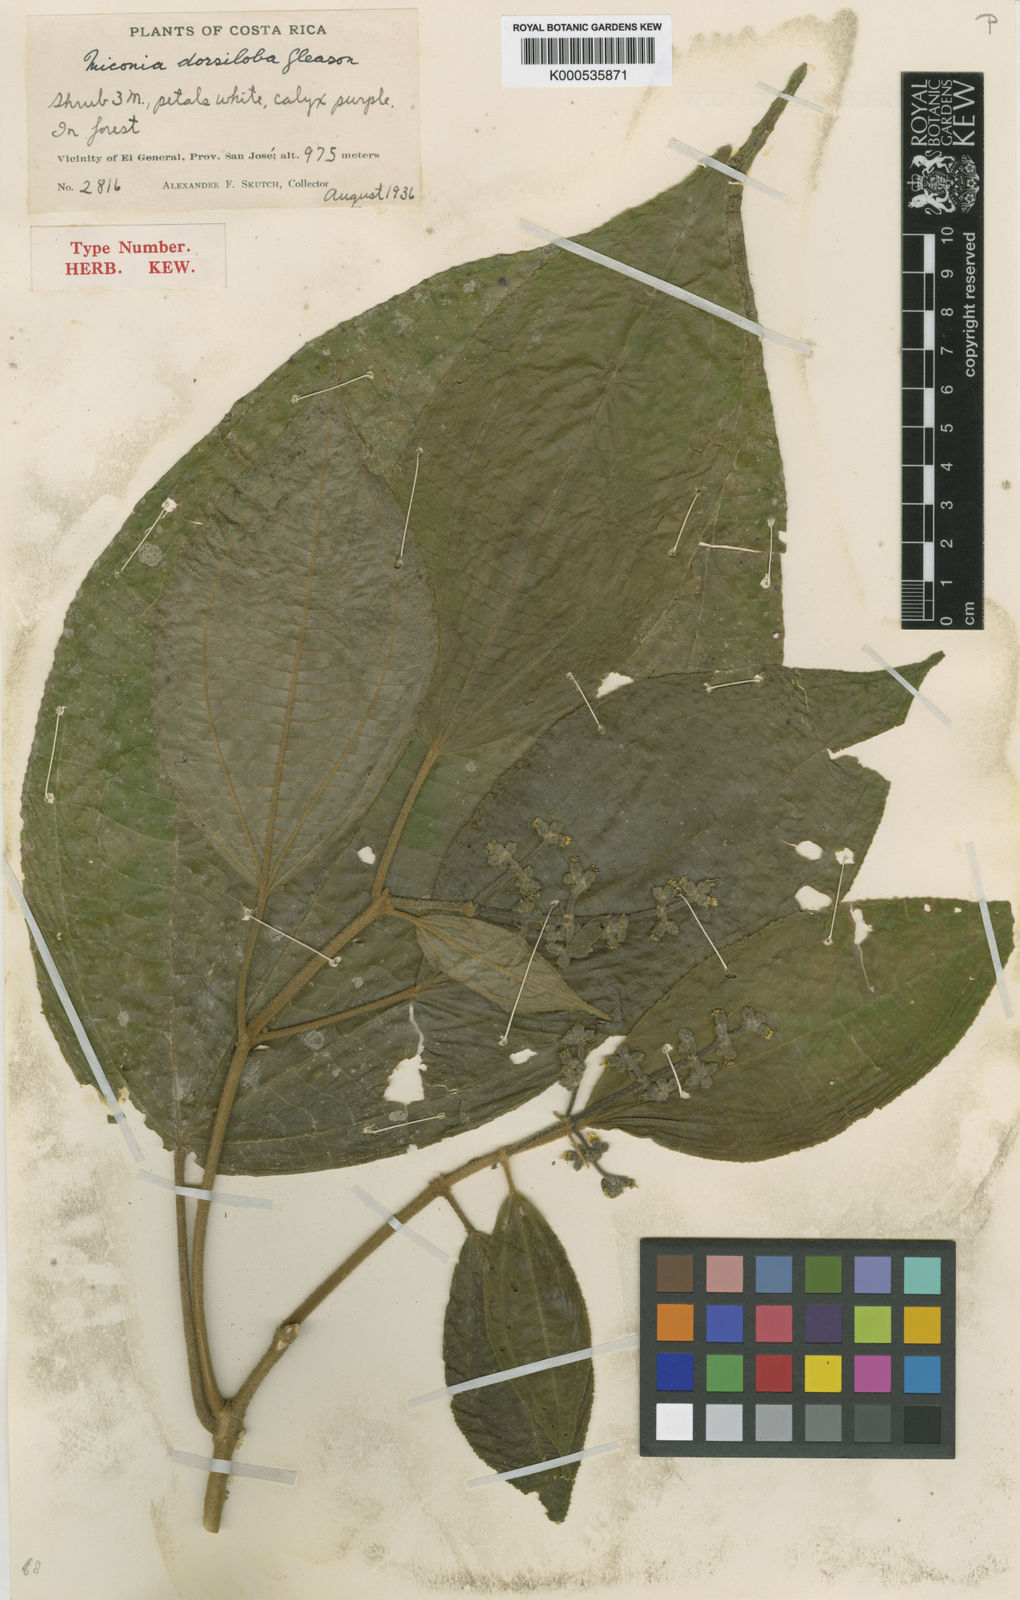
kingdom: Plantae
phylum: Tracheophyta
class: Magnoliopsida
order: Myrtales
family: Melastomataceae
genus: Miconia
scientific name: Miconia dorsiloba
